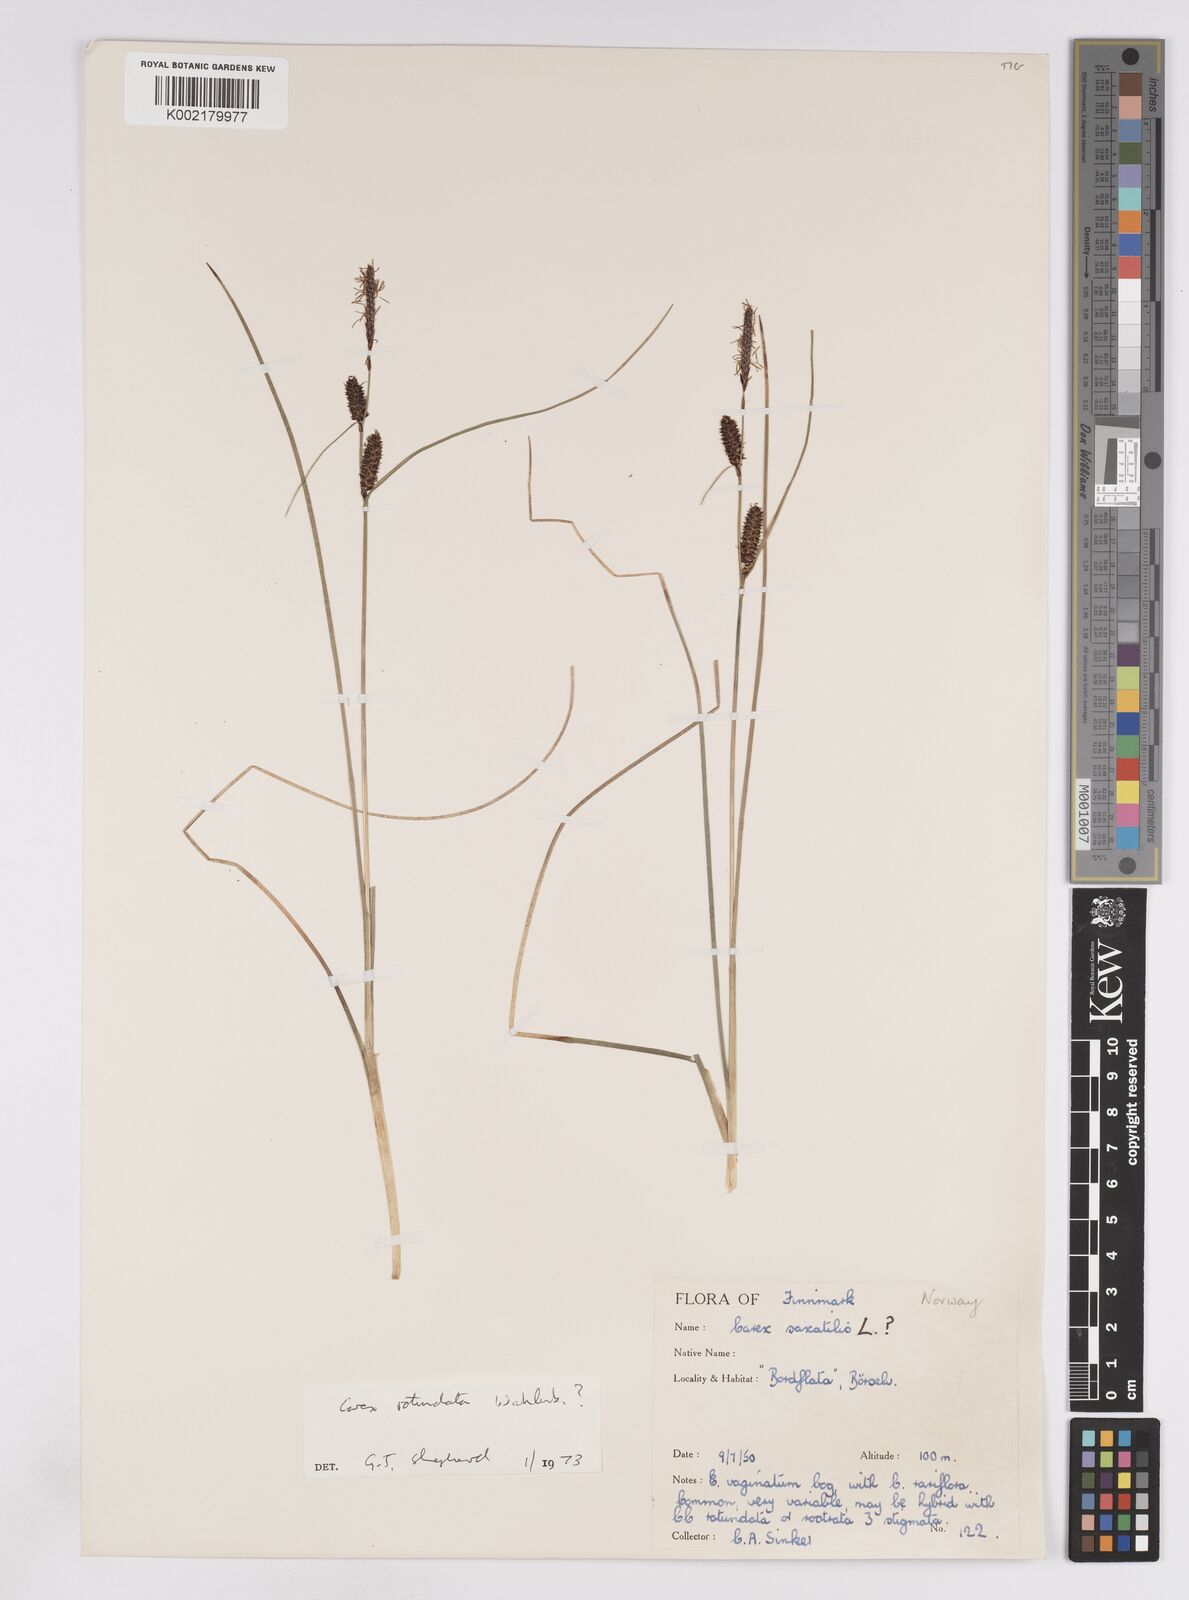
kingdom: Plantae
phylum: Tracheophyta
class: Liliopsida
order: Poales
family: Cyperaceae
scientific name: Cyperaceae
